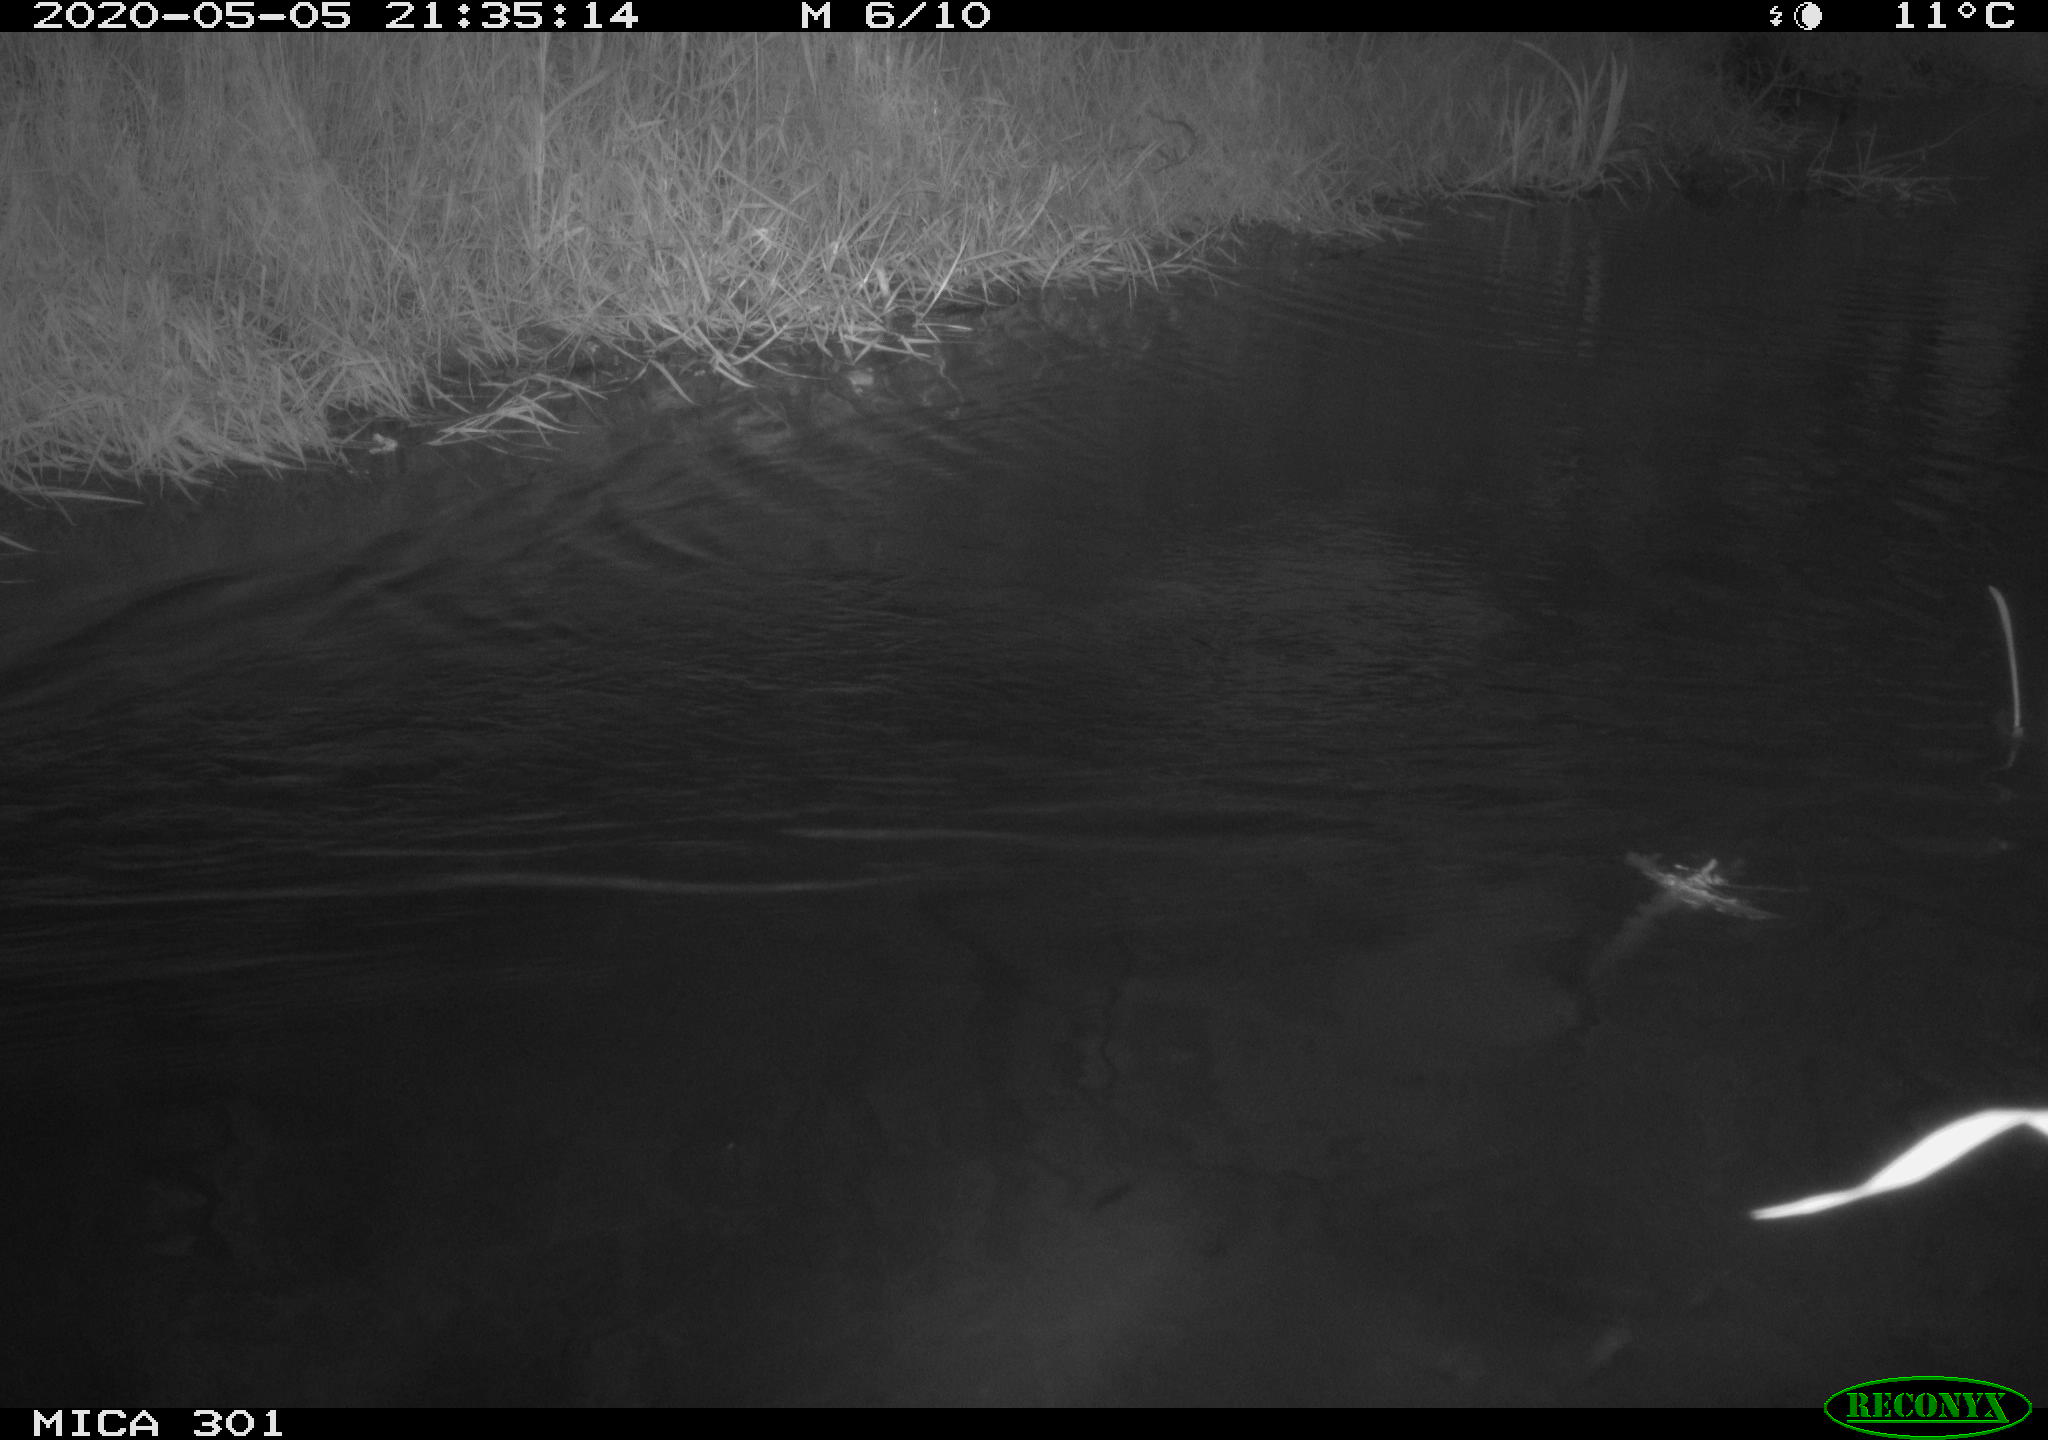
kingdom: Animalia
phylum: Chordata
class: Mammalia
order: Rodentia
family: Castoridae
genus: Castor
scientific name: Castor fiber
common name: Eurasian beaver
